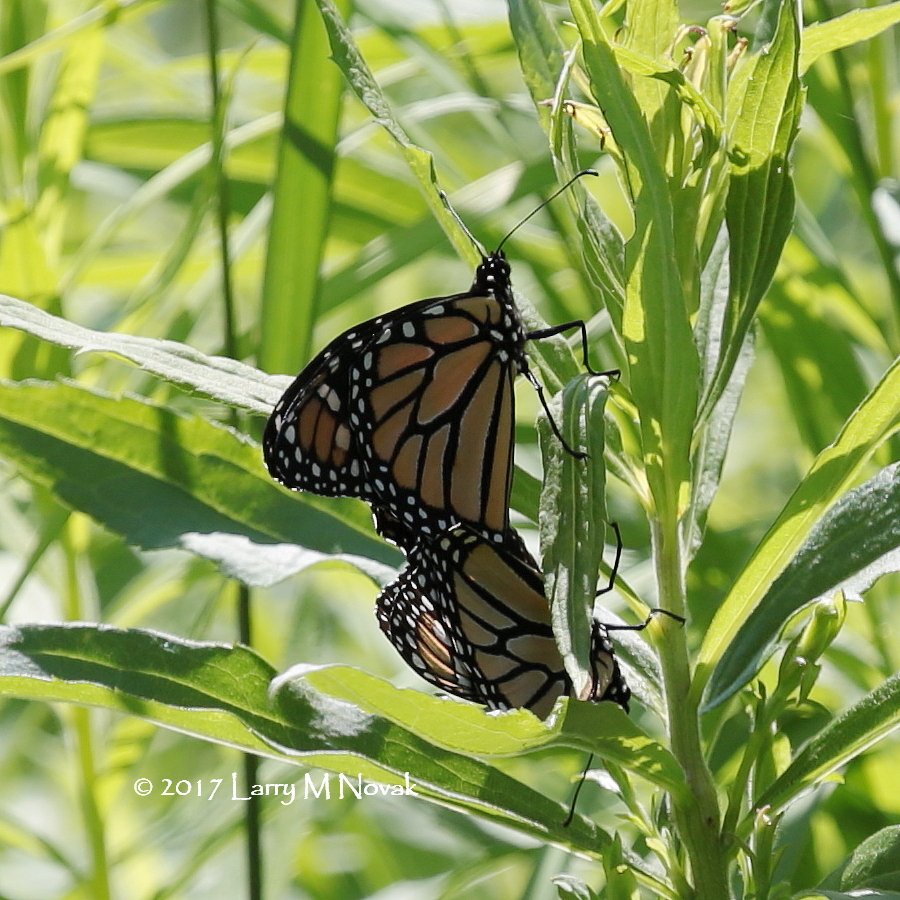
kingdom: Animalia
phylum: Arthropoda
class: Insecta
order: Lepidoptera
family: Nymphalidae
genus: Danaus
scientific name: Danaus plexippus
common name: Monarch
